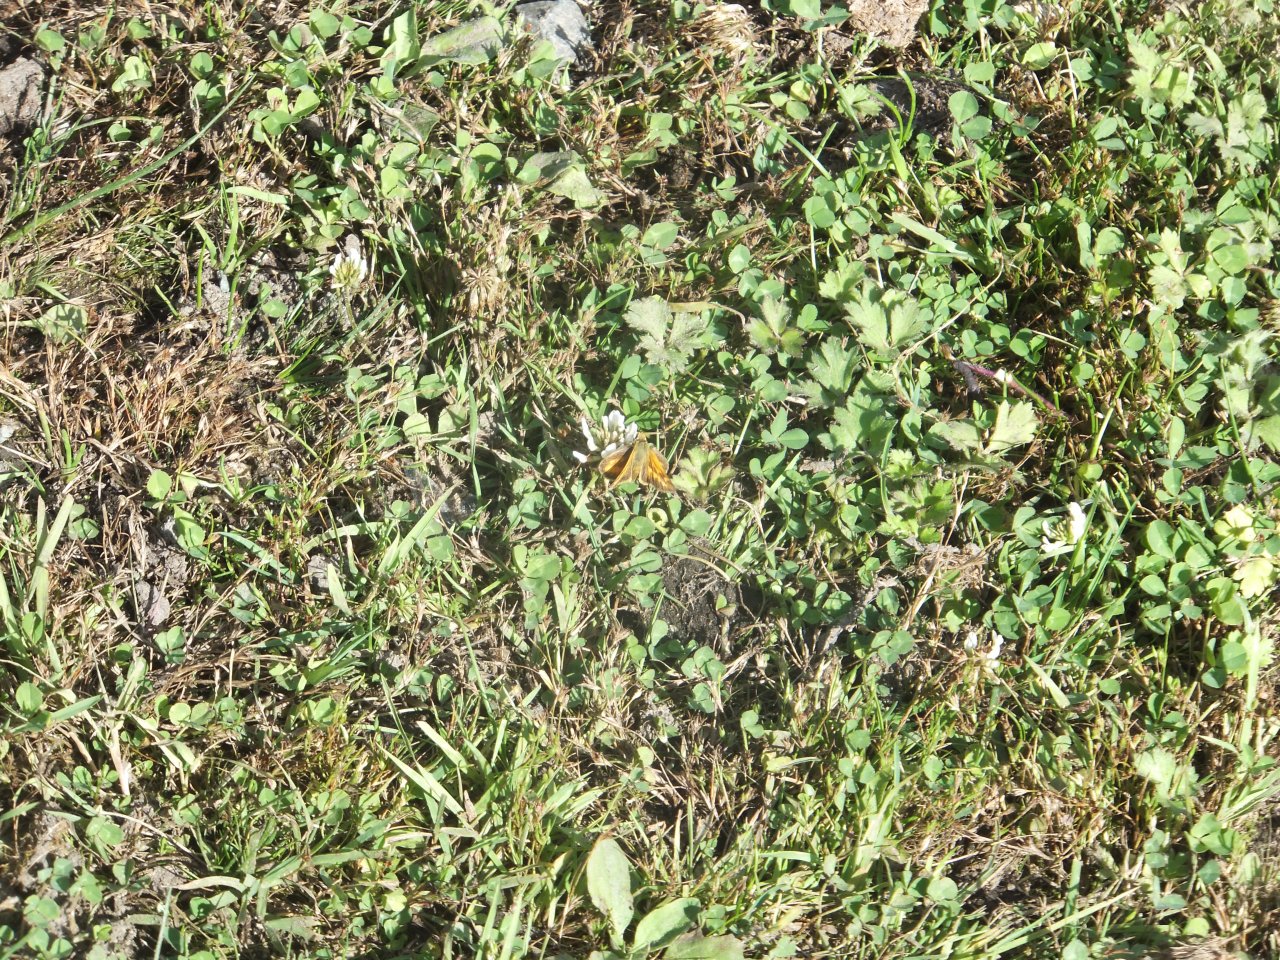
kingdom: Animalia
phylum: Arthropoda
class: Insecta
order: Lepidoptera
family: Hesperiidae
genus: Ochlodes
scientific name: Ochlodes sylvanoides
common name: Woodland Skipper
